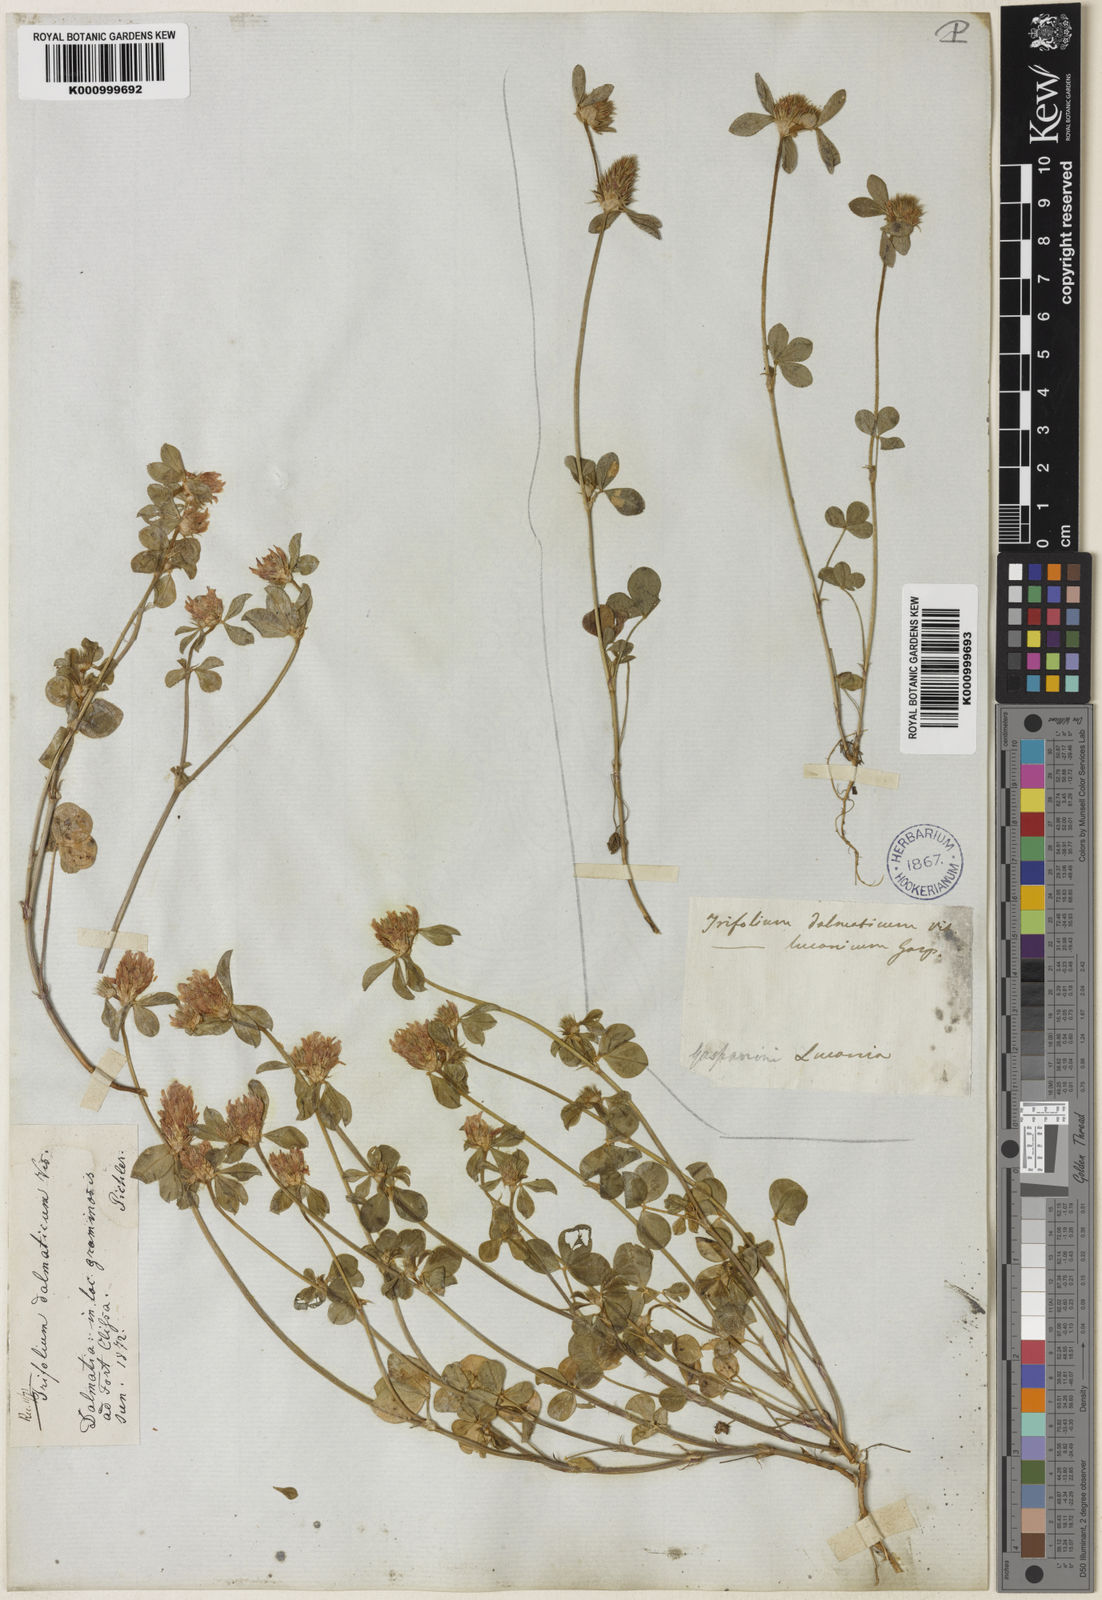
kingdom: Plantae
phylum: Tracheophyta
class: Magnoliopsida
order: Fabales
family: Fabaceae
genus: Trifolium
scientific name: Trifolium dalmaticum
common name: Dalmatian clover
